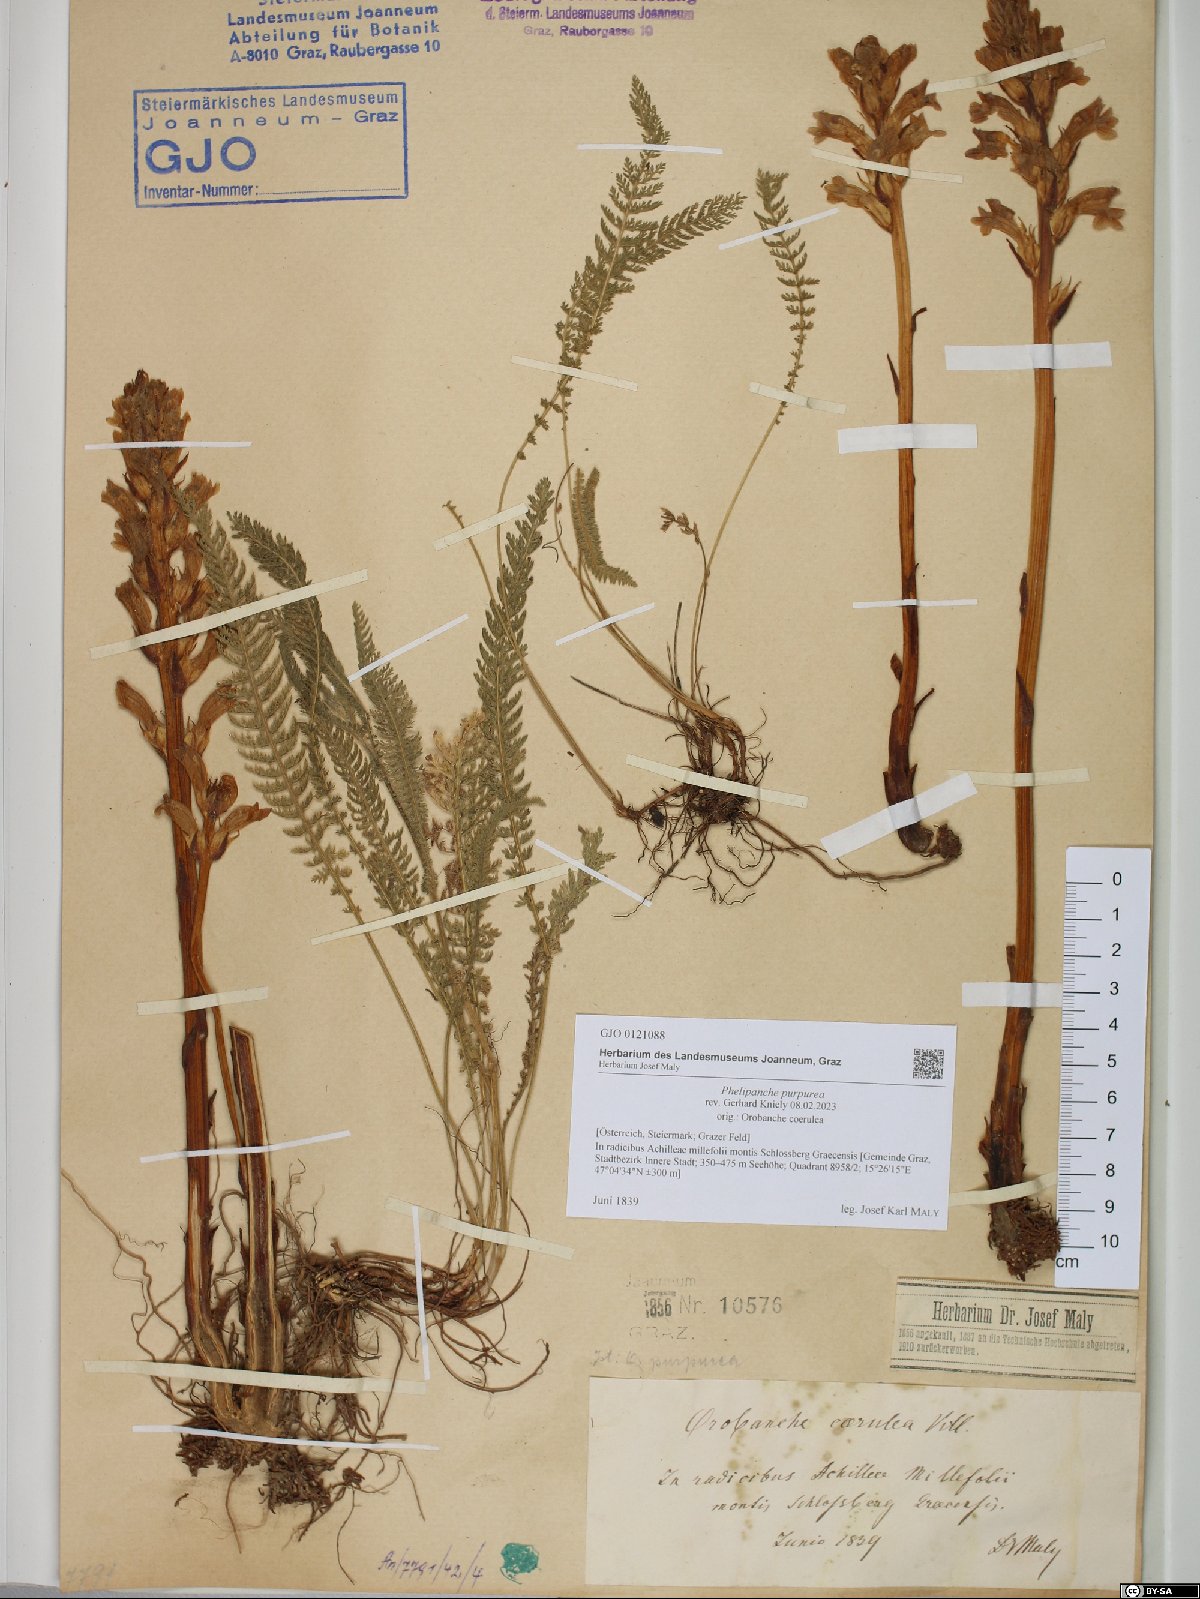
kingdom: Plantae
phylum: Tracheophyta
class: Magnoliopsida
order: Lamiales
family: Orobanchaceae
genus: Phelipanche
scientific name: Phelipanche purpurea
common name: Purple broomrape
